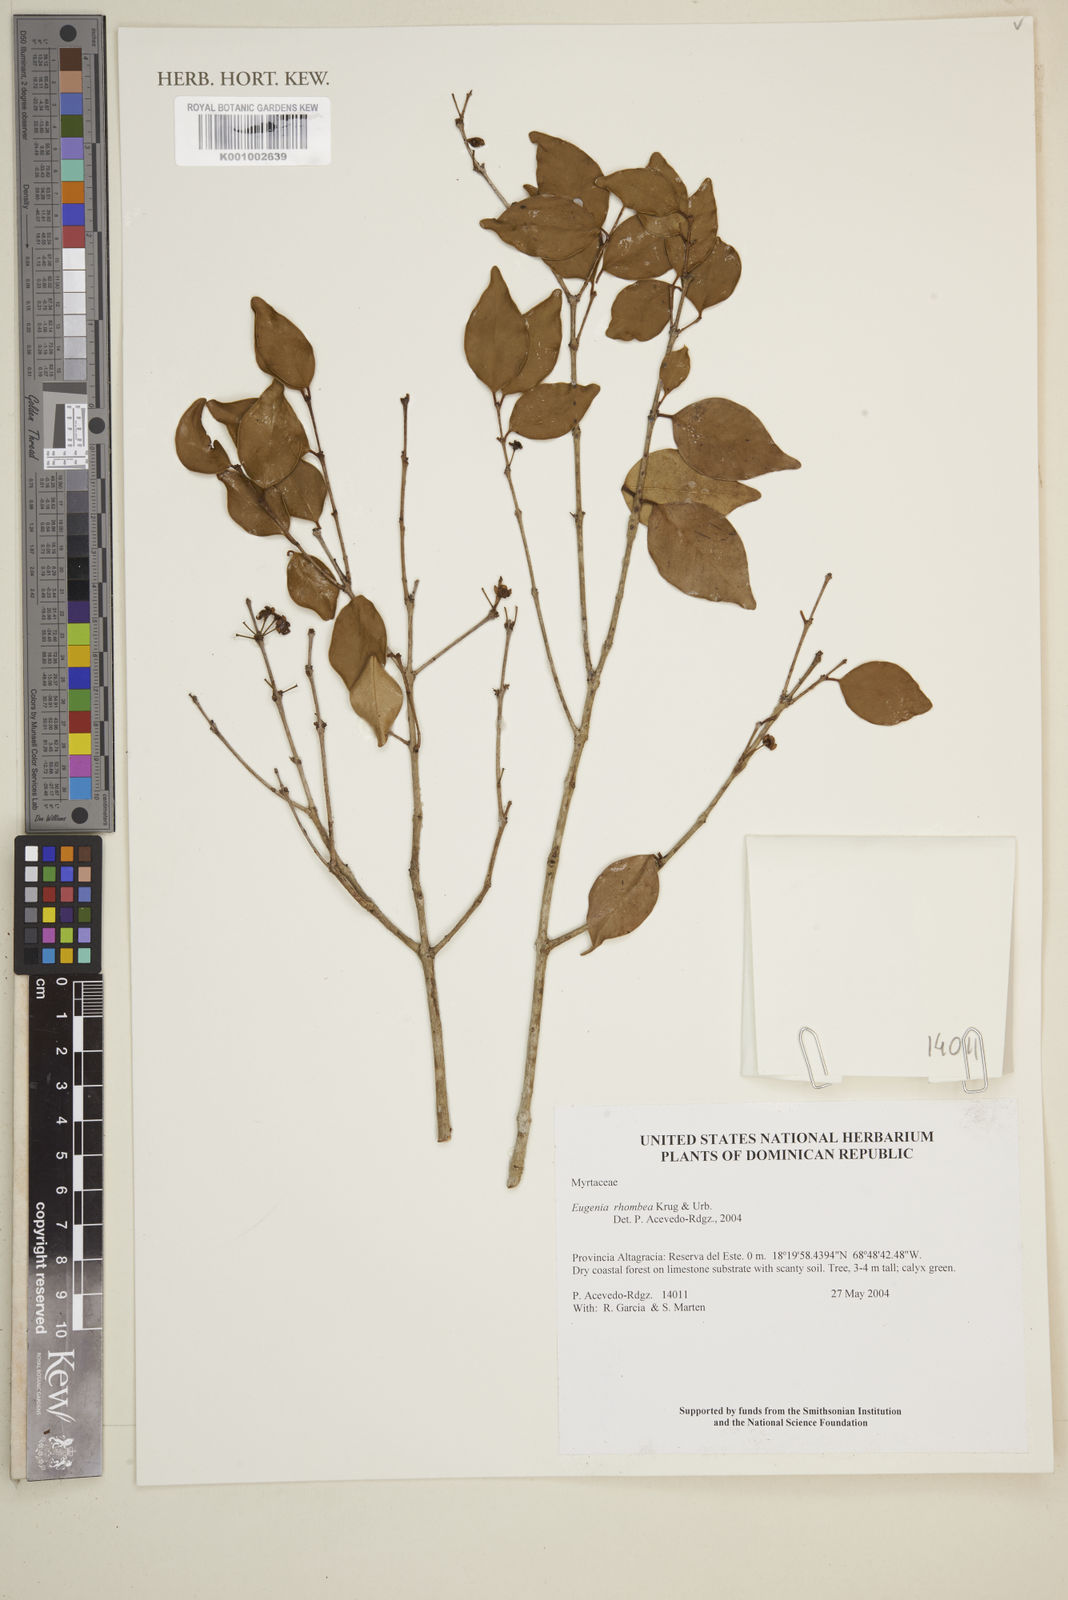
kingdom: Plantae
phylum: Tracheophyta
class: Magnoliopsida
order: Myrtales
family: Myrtaceae
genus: Eugenia
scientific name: Eugenia rhombea
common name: Pigeon berry
